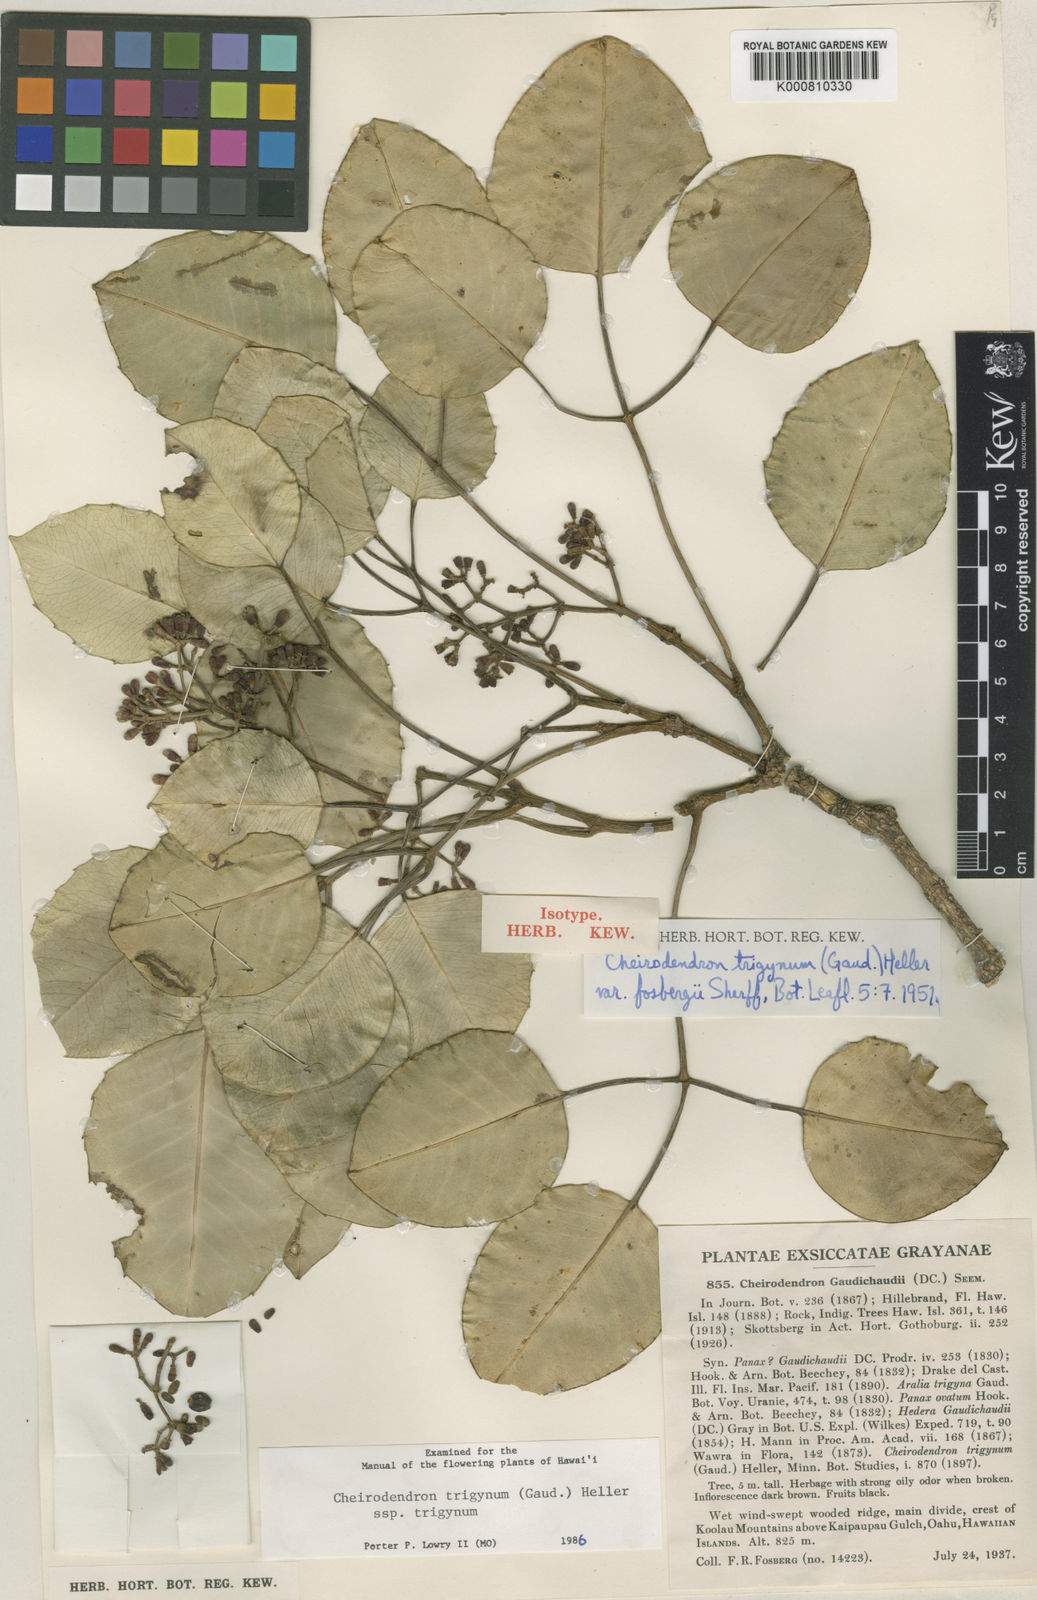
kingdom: Plantae
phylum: Tracheophyta
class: Magnoliopsida
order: Apiales
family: Araliaceae
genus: Cheirodendron
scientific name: Cheirodendron trigynum
